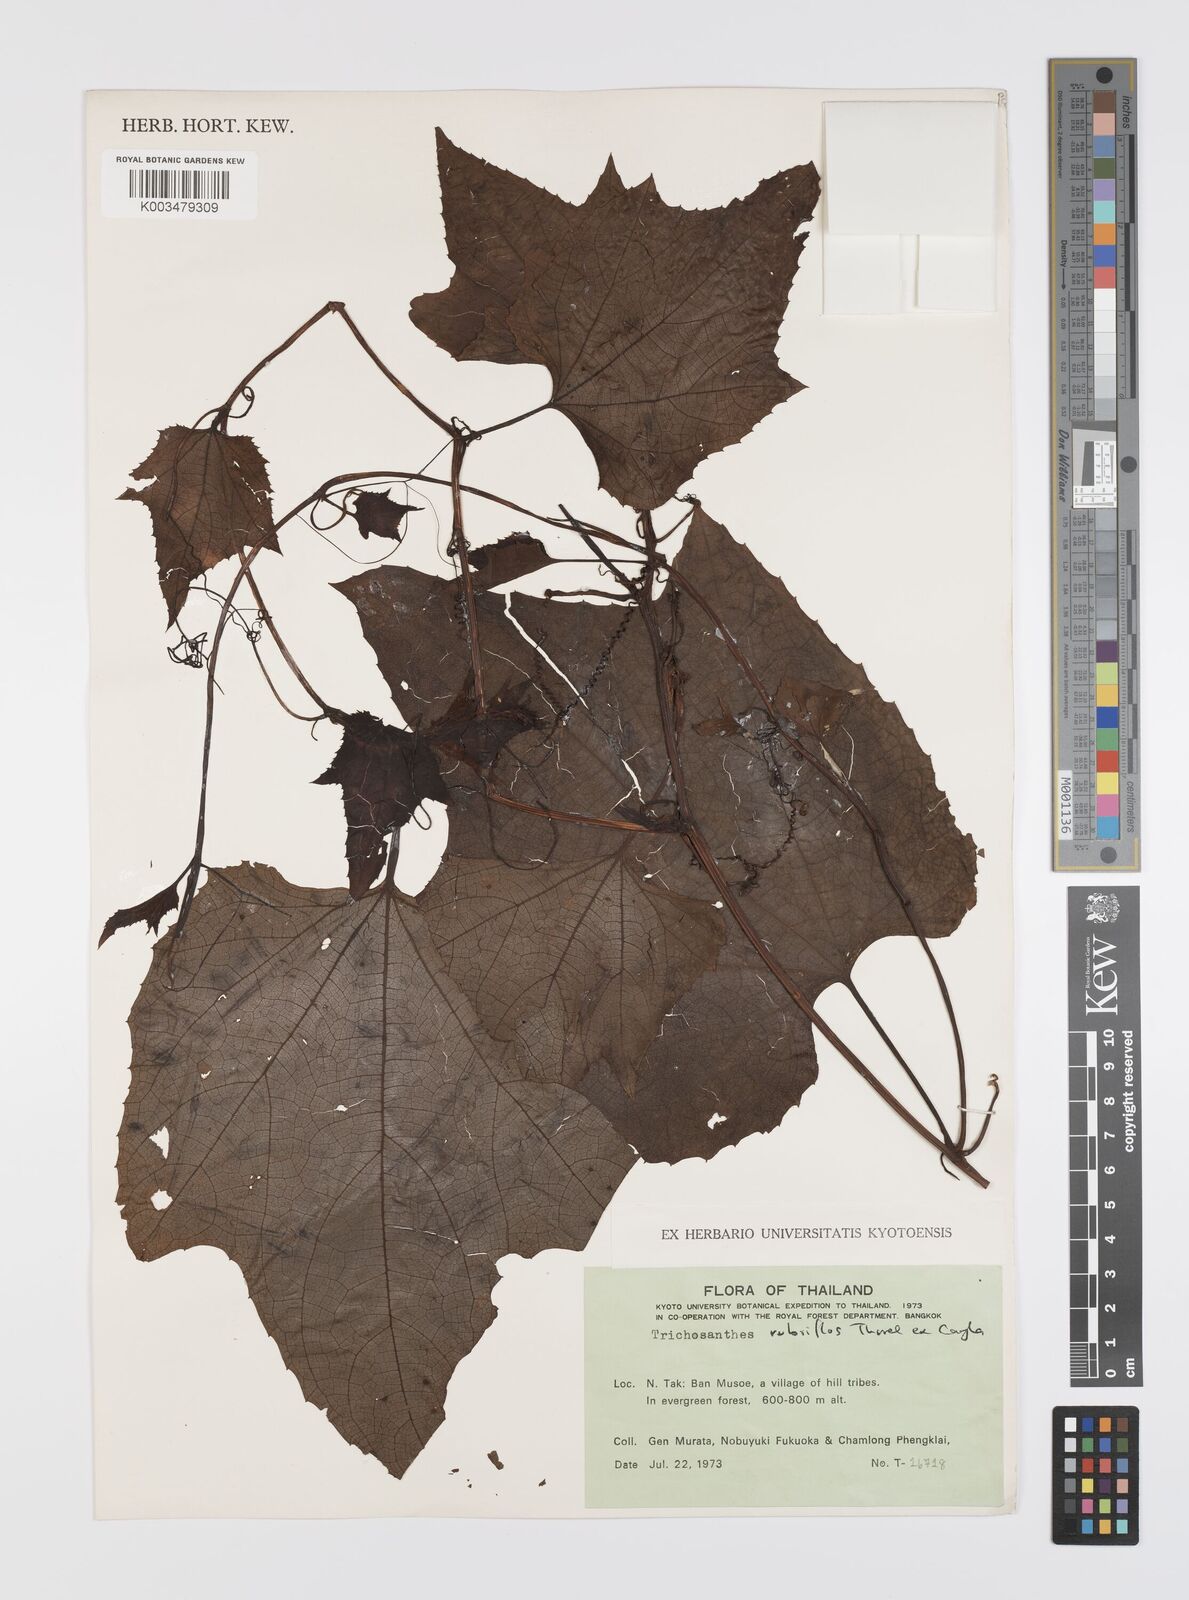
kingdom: Plantae
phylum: Tracheophyta
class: Magnoliopsida
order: Cucurbitales
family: Cucurbitaceae
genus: Trichosanthes
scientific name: Trichosanthes rubriflos
